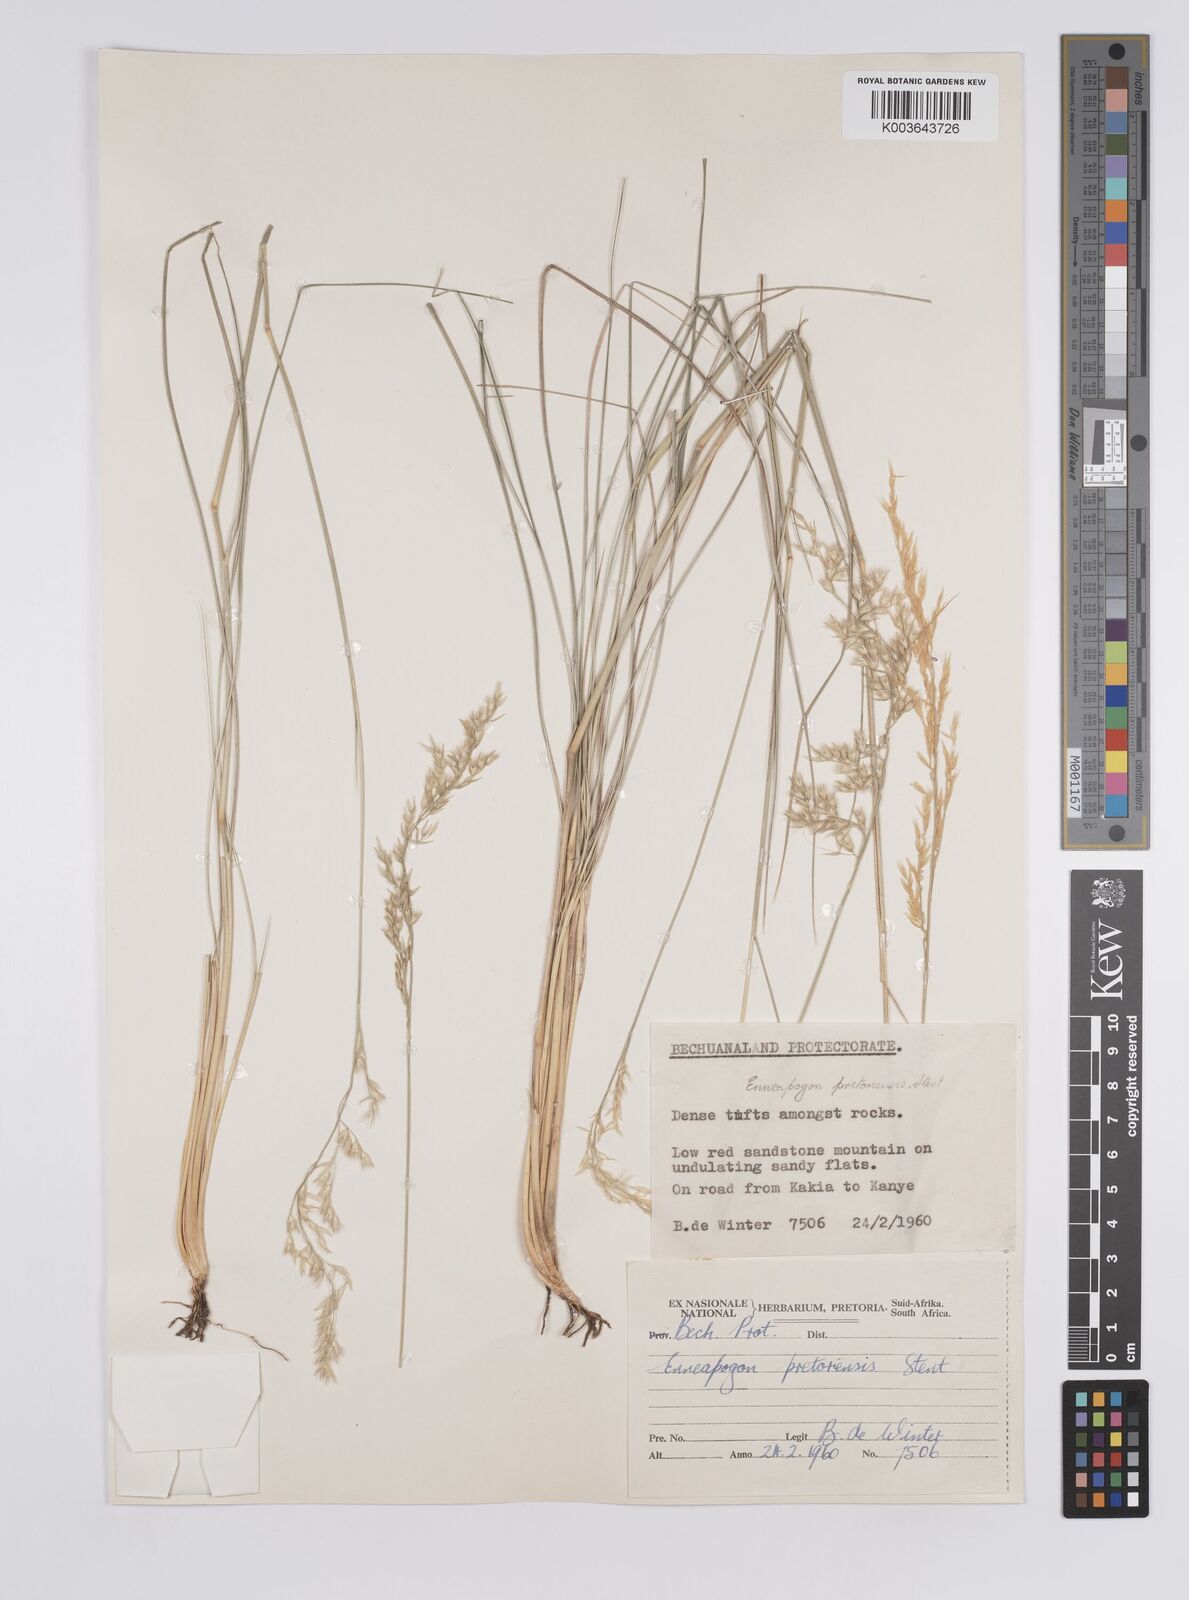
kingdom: Plantae
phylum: Tracheophyta
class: Liliopsida
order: Poales
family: Poaceae
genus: Enneapogon
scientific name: Enneapogon pretoriensis
